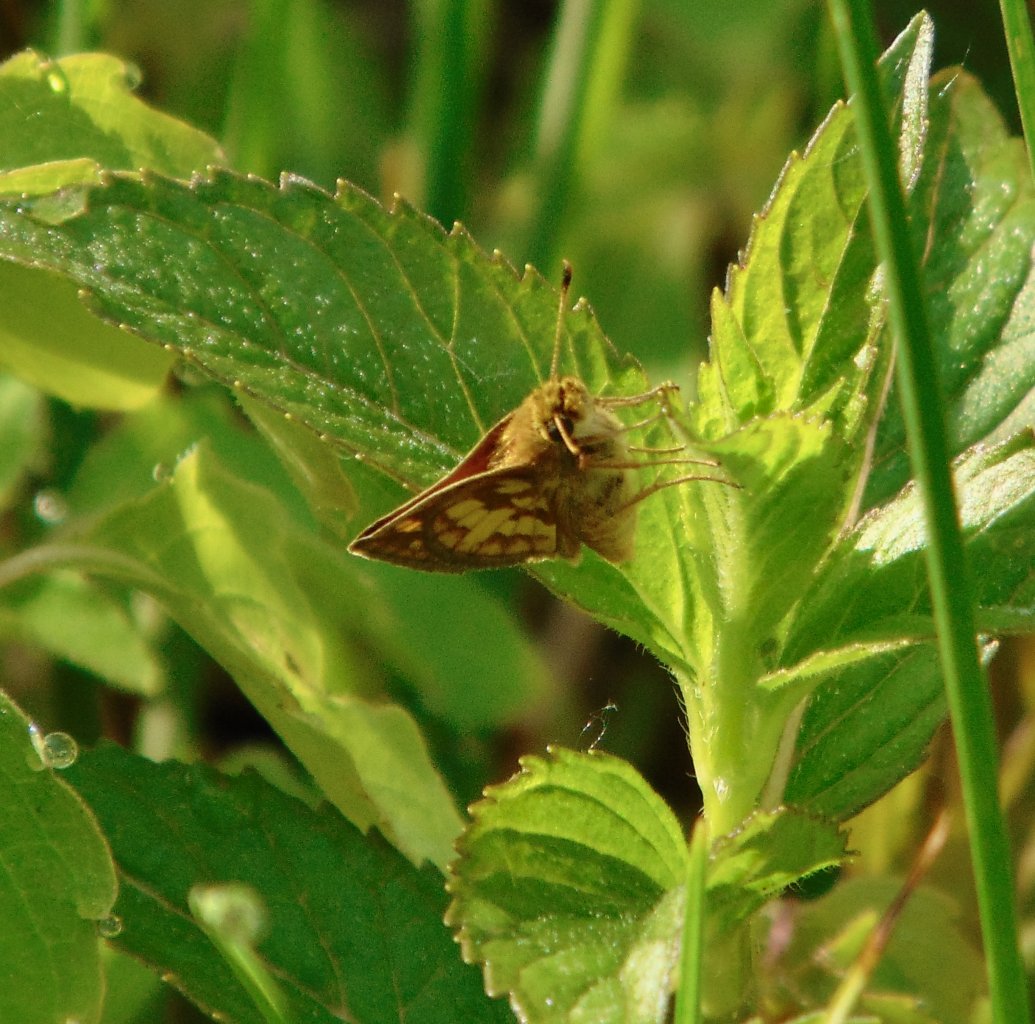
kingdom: Animalia
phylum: Arthropoda
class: Insecta
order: Lepidoptera
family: Hesperiidae
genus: Polites
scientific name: Polites coras
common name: Peck's Skipper
